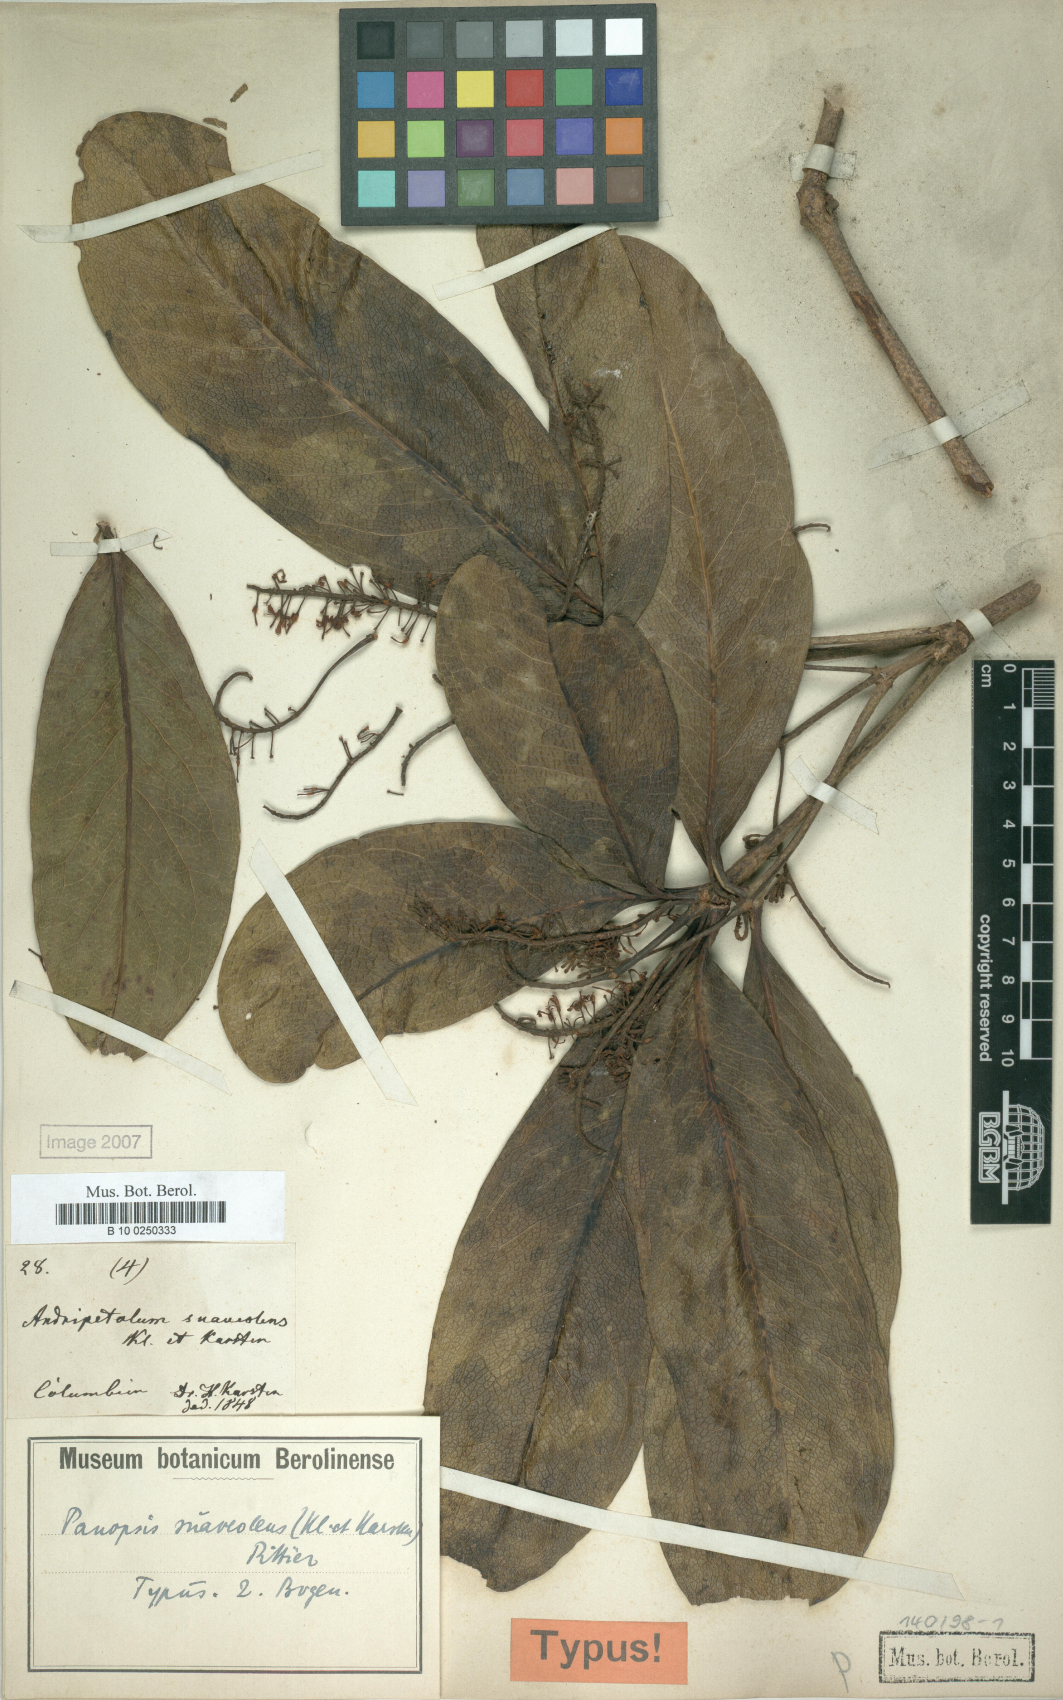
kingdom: Plantae
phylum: Tracheophyta
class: Magnoliopsida
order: Proteales
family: Proteaceae
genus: Panopsis
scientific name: Panopsis suaveolens
